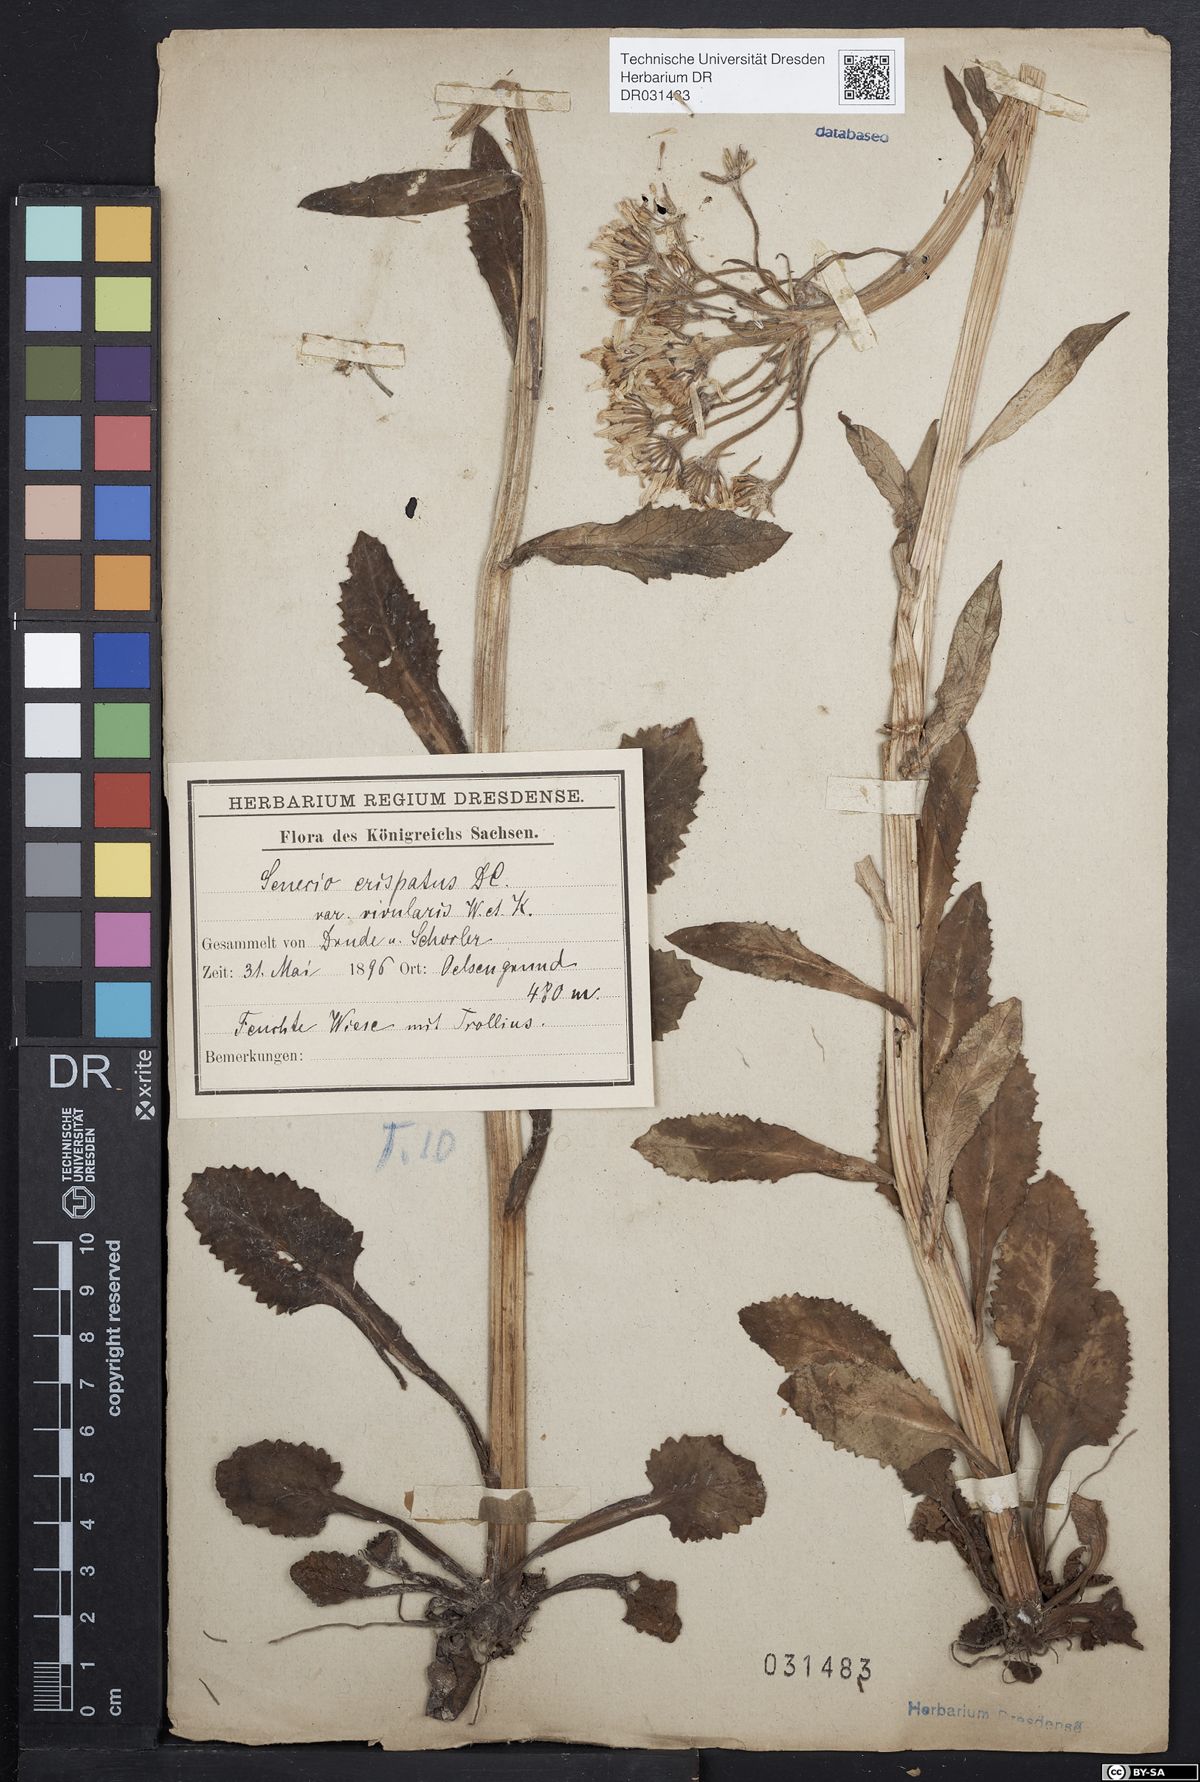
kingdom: Plantae
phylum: Tracheophyta
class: Magnoliopsida
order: Asterales
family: Asteraceae
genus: Tephroseris
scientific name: Tephroseris crispa
